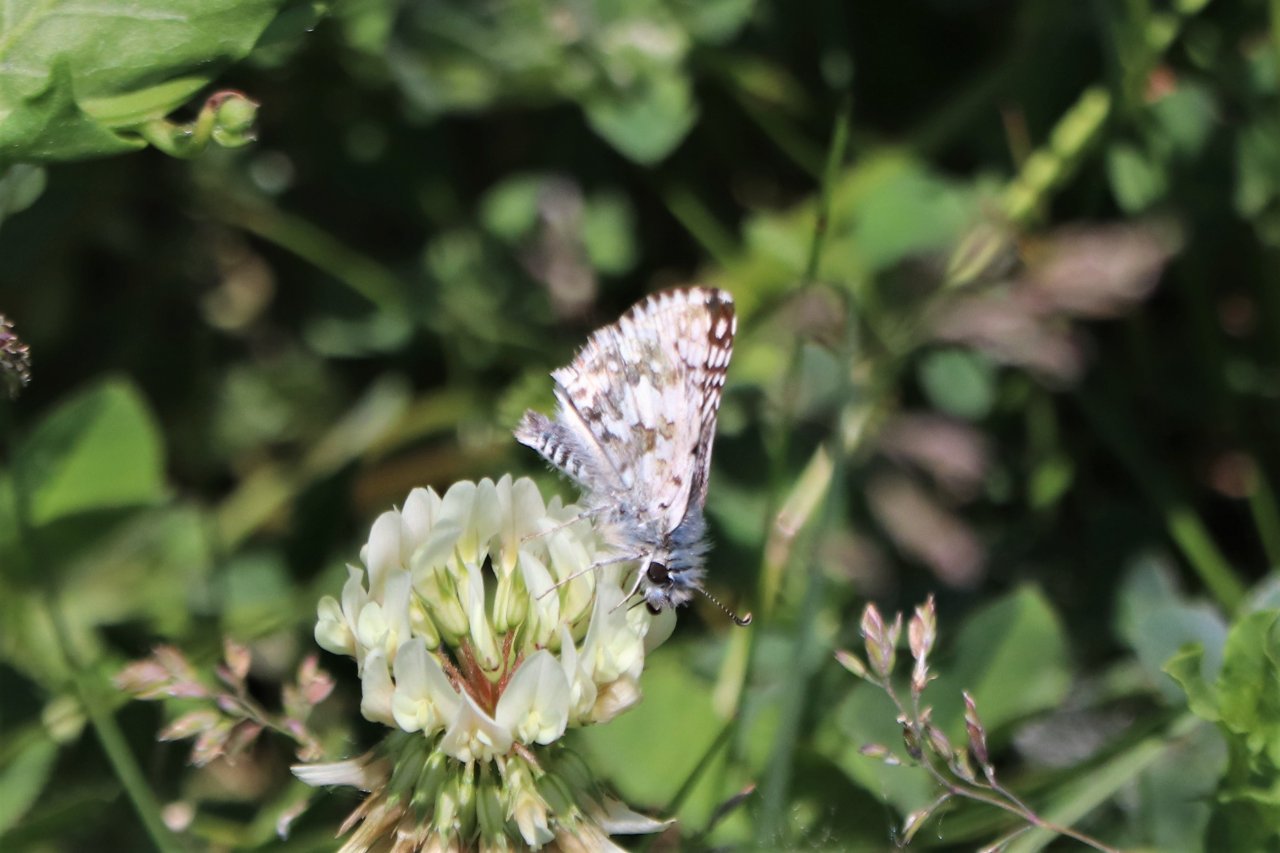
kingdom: Animalia
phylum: Arthropoda
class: Insecta
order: Lepidoptera
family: Hesperiidae
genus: Pyrgus
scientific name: Pyrgus communis
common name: Common Checkered-Skipper
